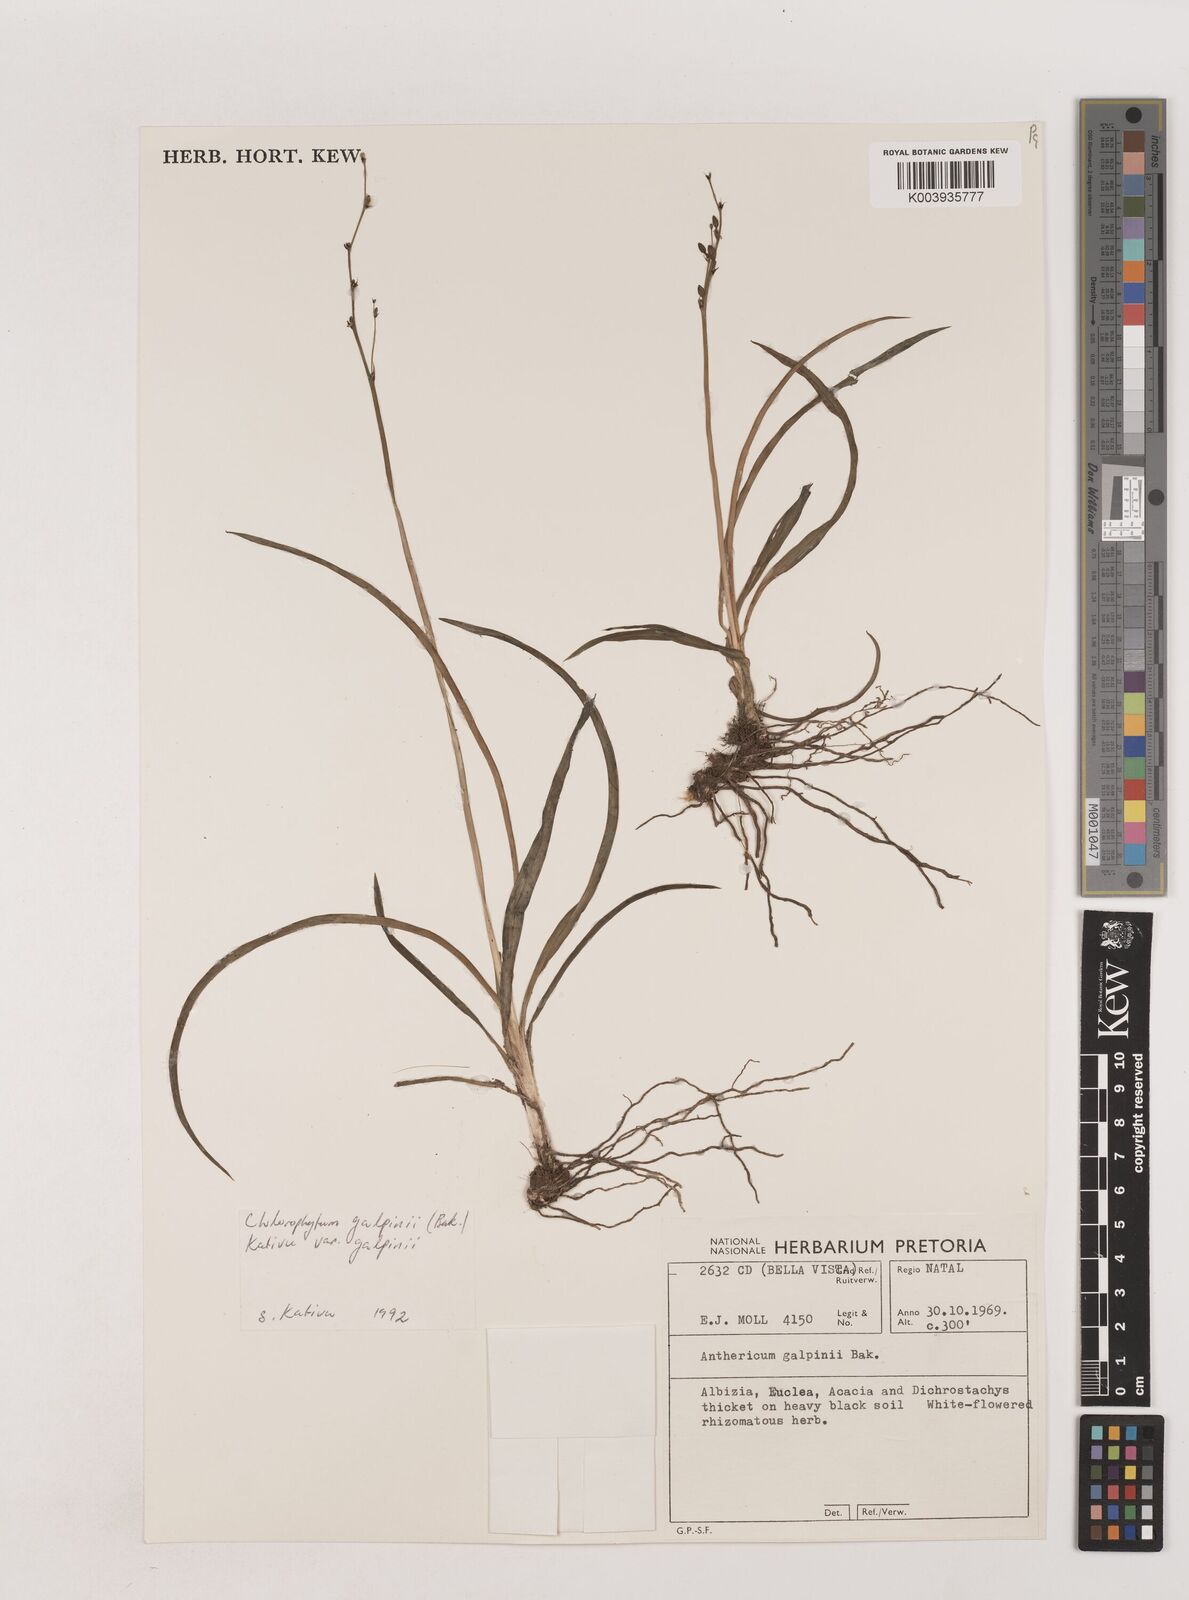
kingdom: Plantae
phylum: Tracheophyta
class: Liliopsida
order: Asparagales
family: Asparagaceae
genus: Chlorophytum
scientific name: Chlorophytum galpinii
